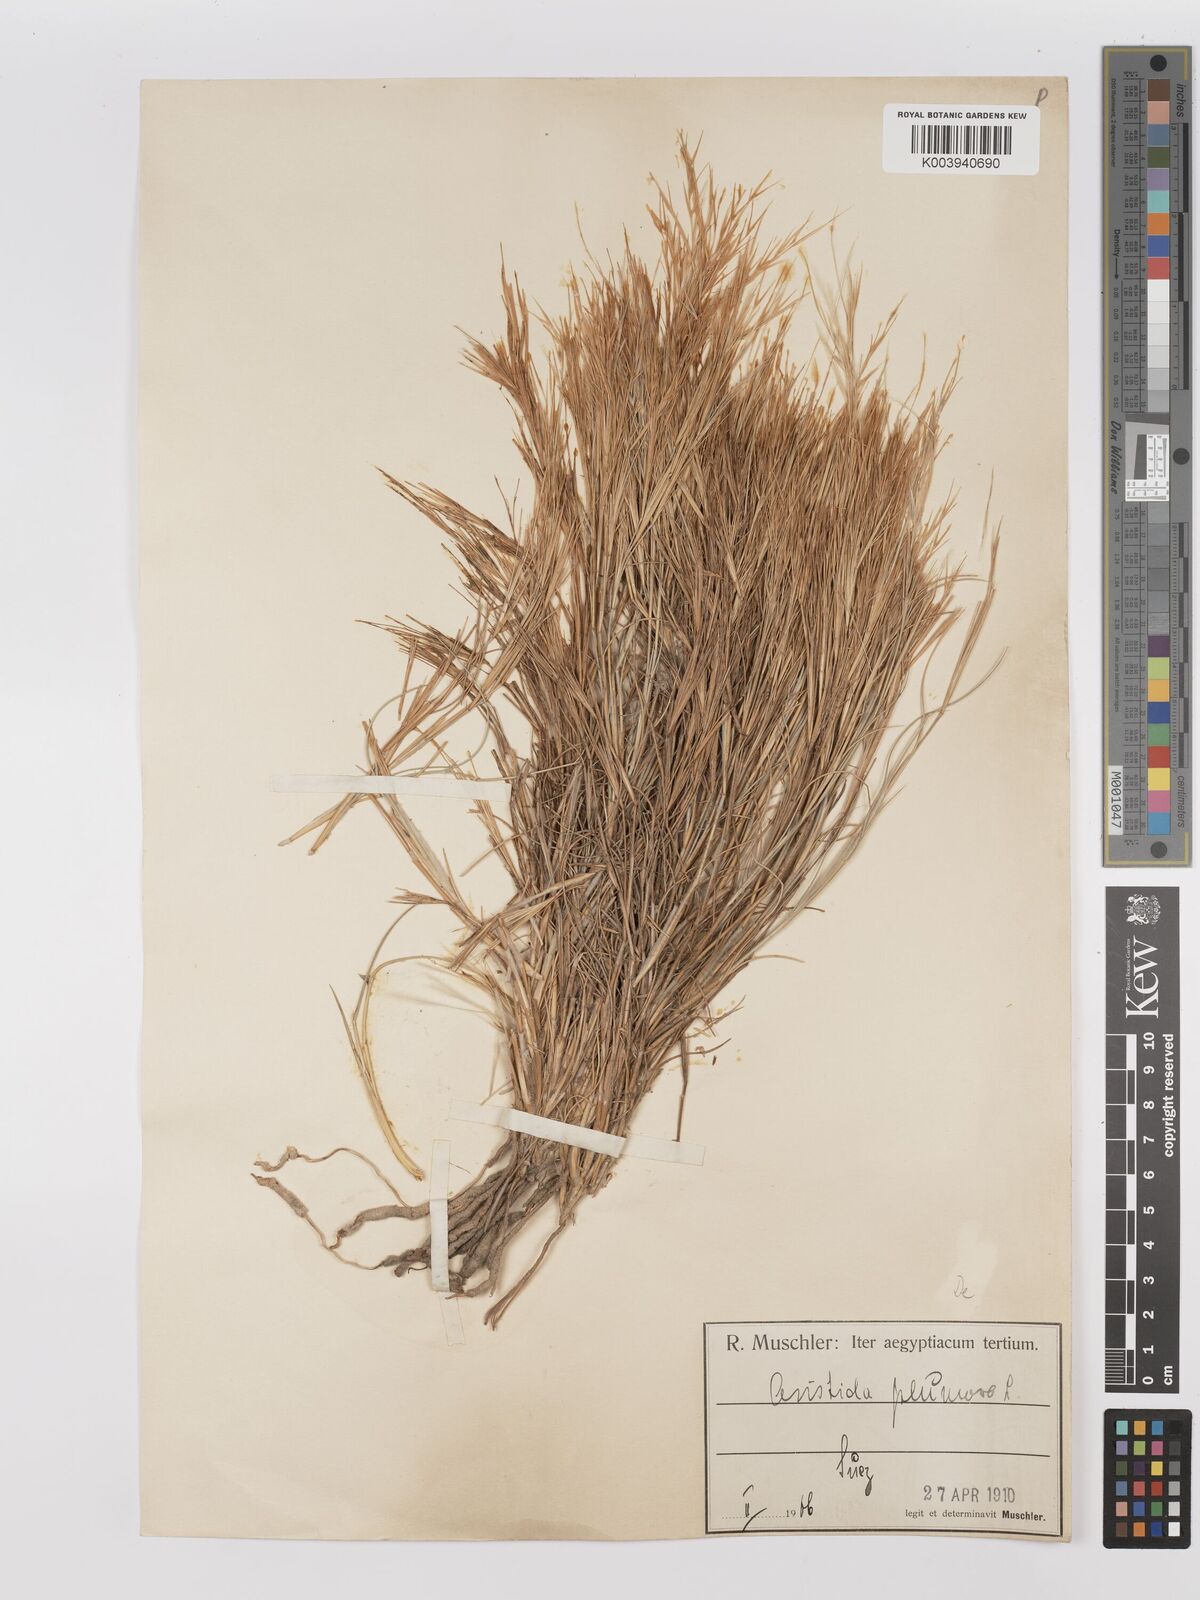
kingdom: Plantae
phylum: Tracheophyta
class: Liliopsida
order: Poales
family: Poaceae
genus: Stipagrostis
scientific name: Stipagrostis plumosa
